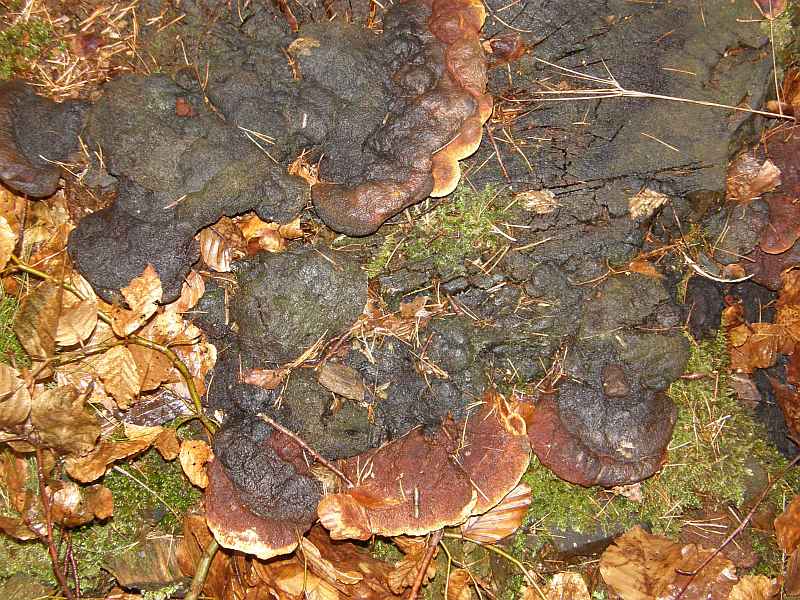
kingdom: Fungi
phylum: Basidiomycota
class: Agaricomycetes
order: Gloeophyllales
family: Gloeophyllaceae
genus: Gloeophyllum
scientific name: Gloeophyllum odoratum
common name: duftende korkhat
